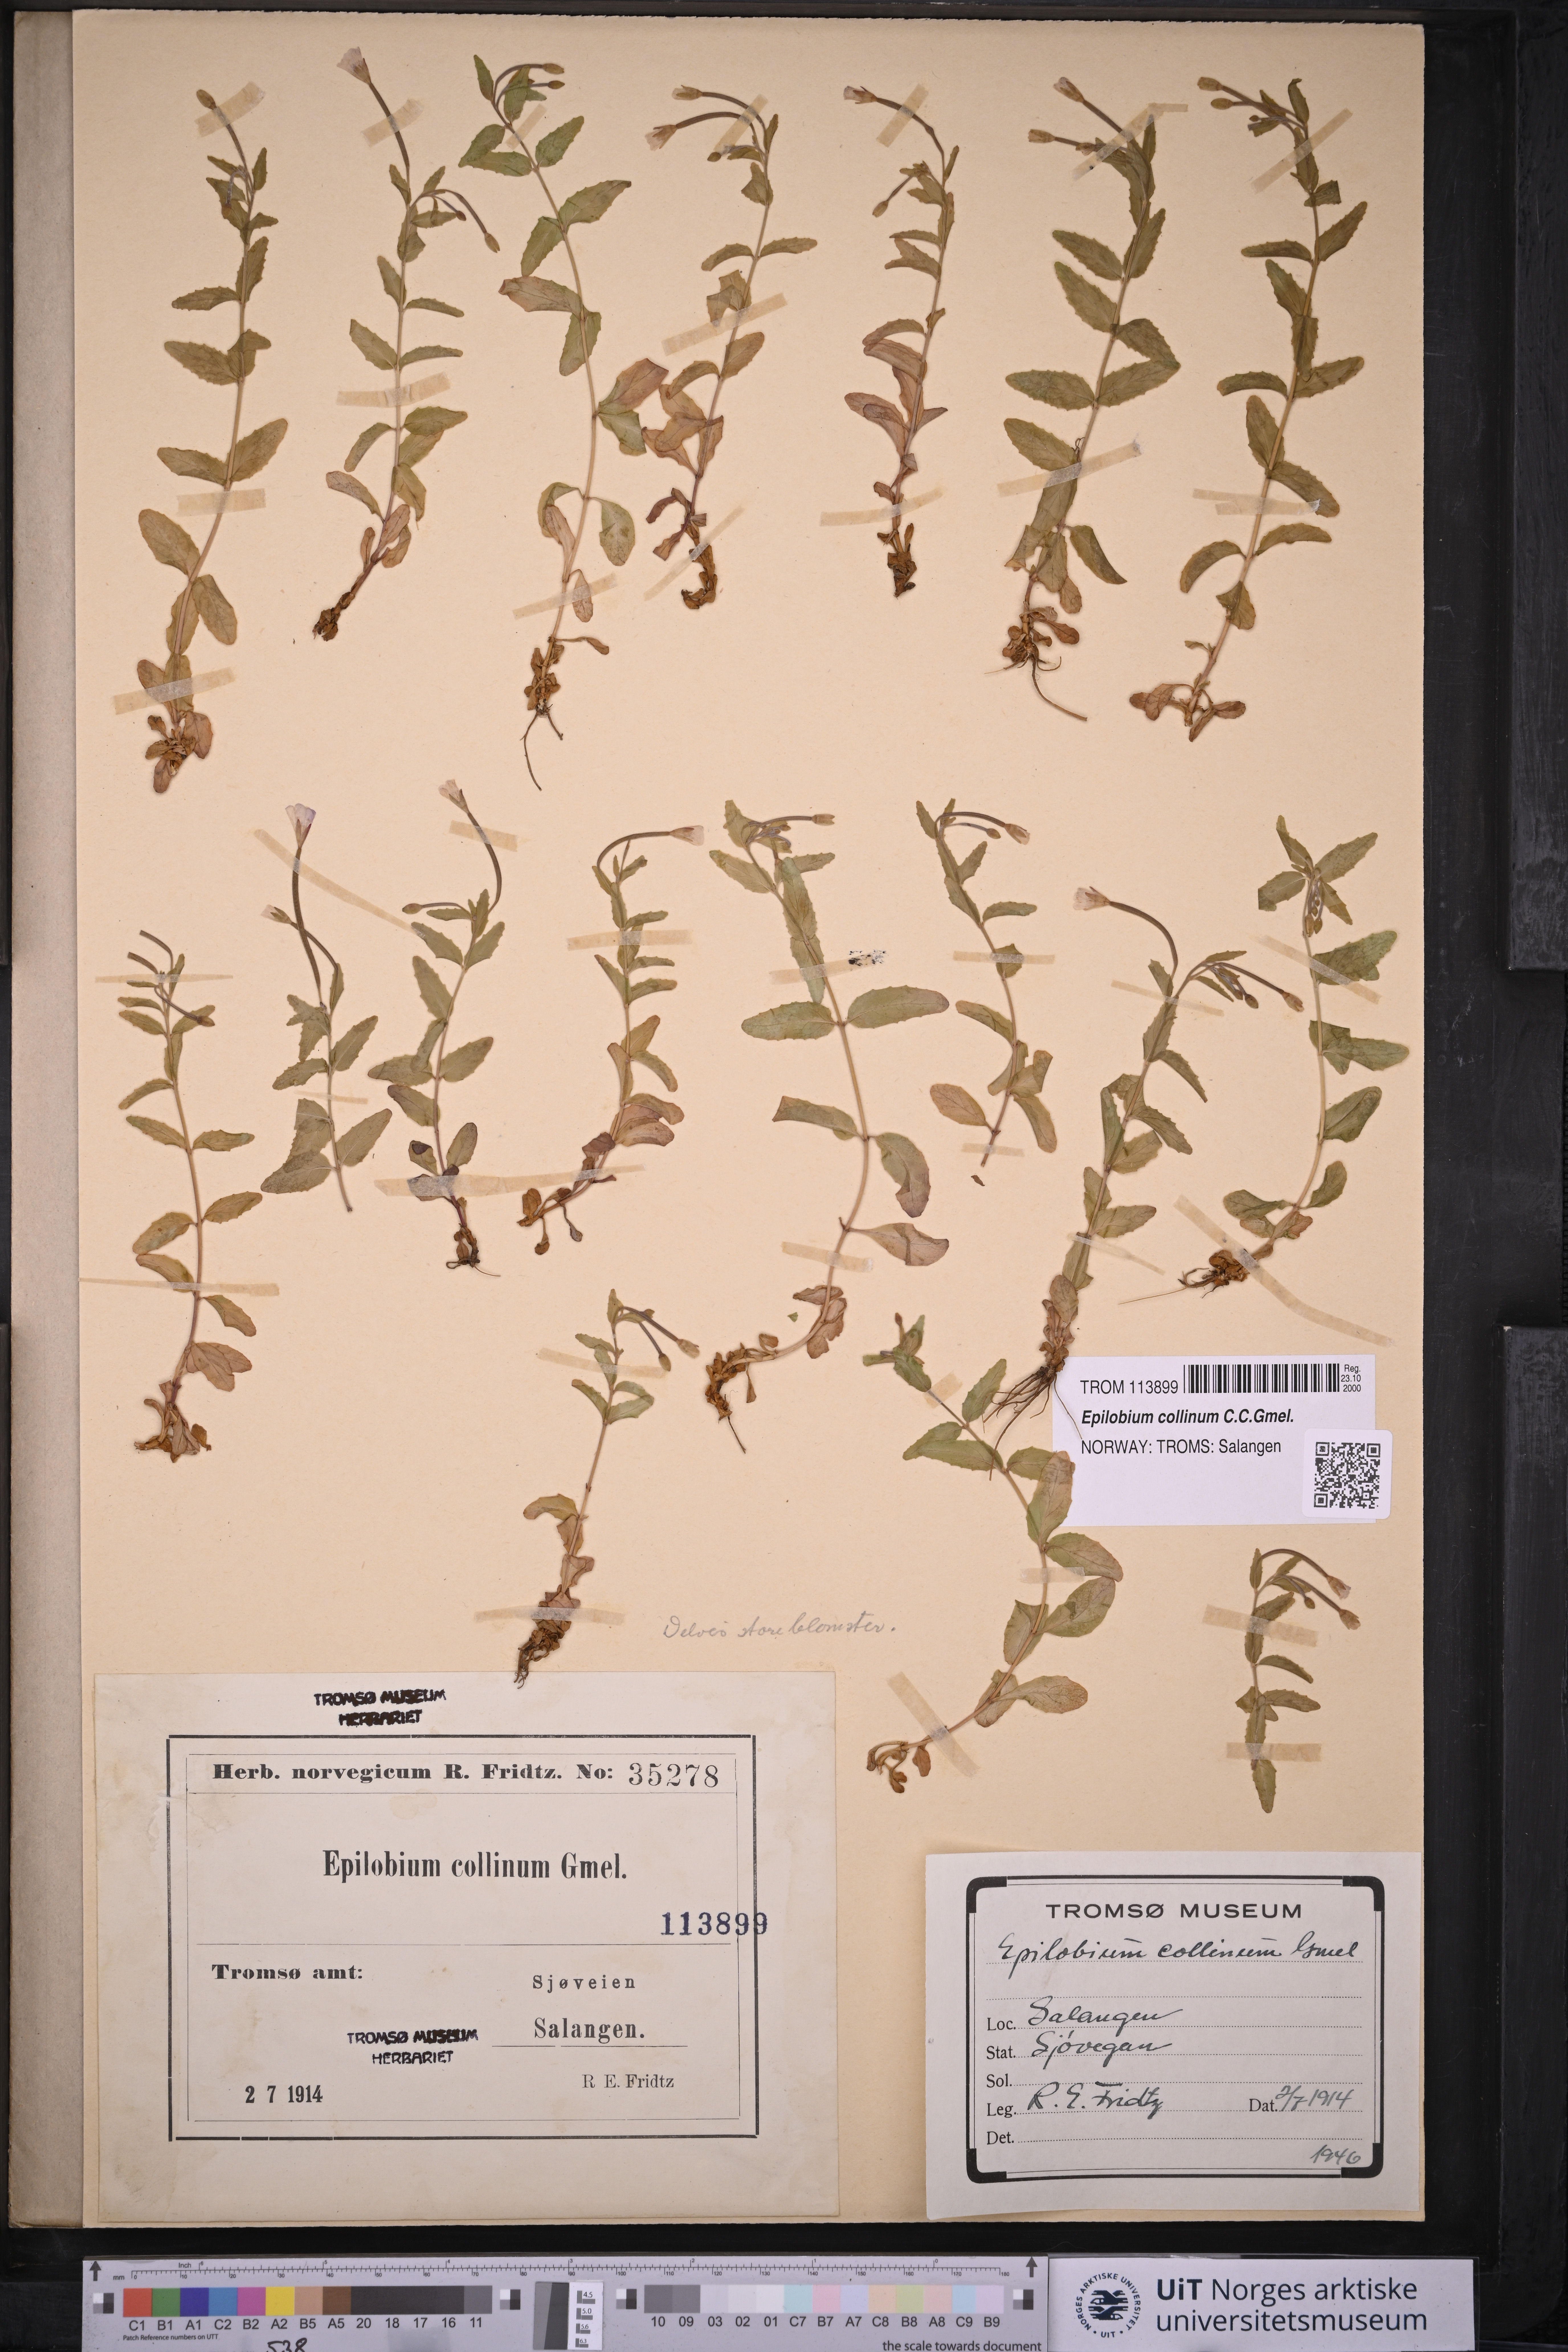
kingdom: Plantae
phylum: Tracheophyta
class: Magnoliopsida
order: Myrtales
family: Onagraceae
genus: Epilobium
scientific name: Epilobium collinum
